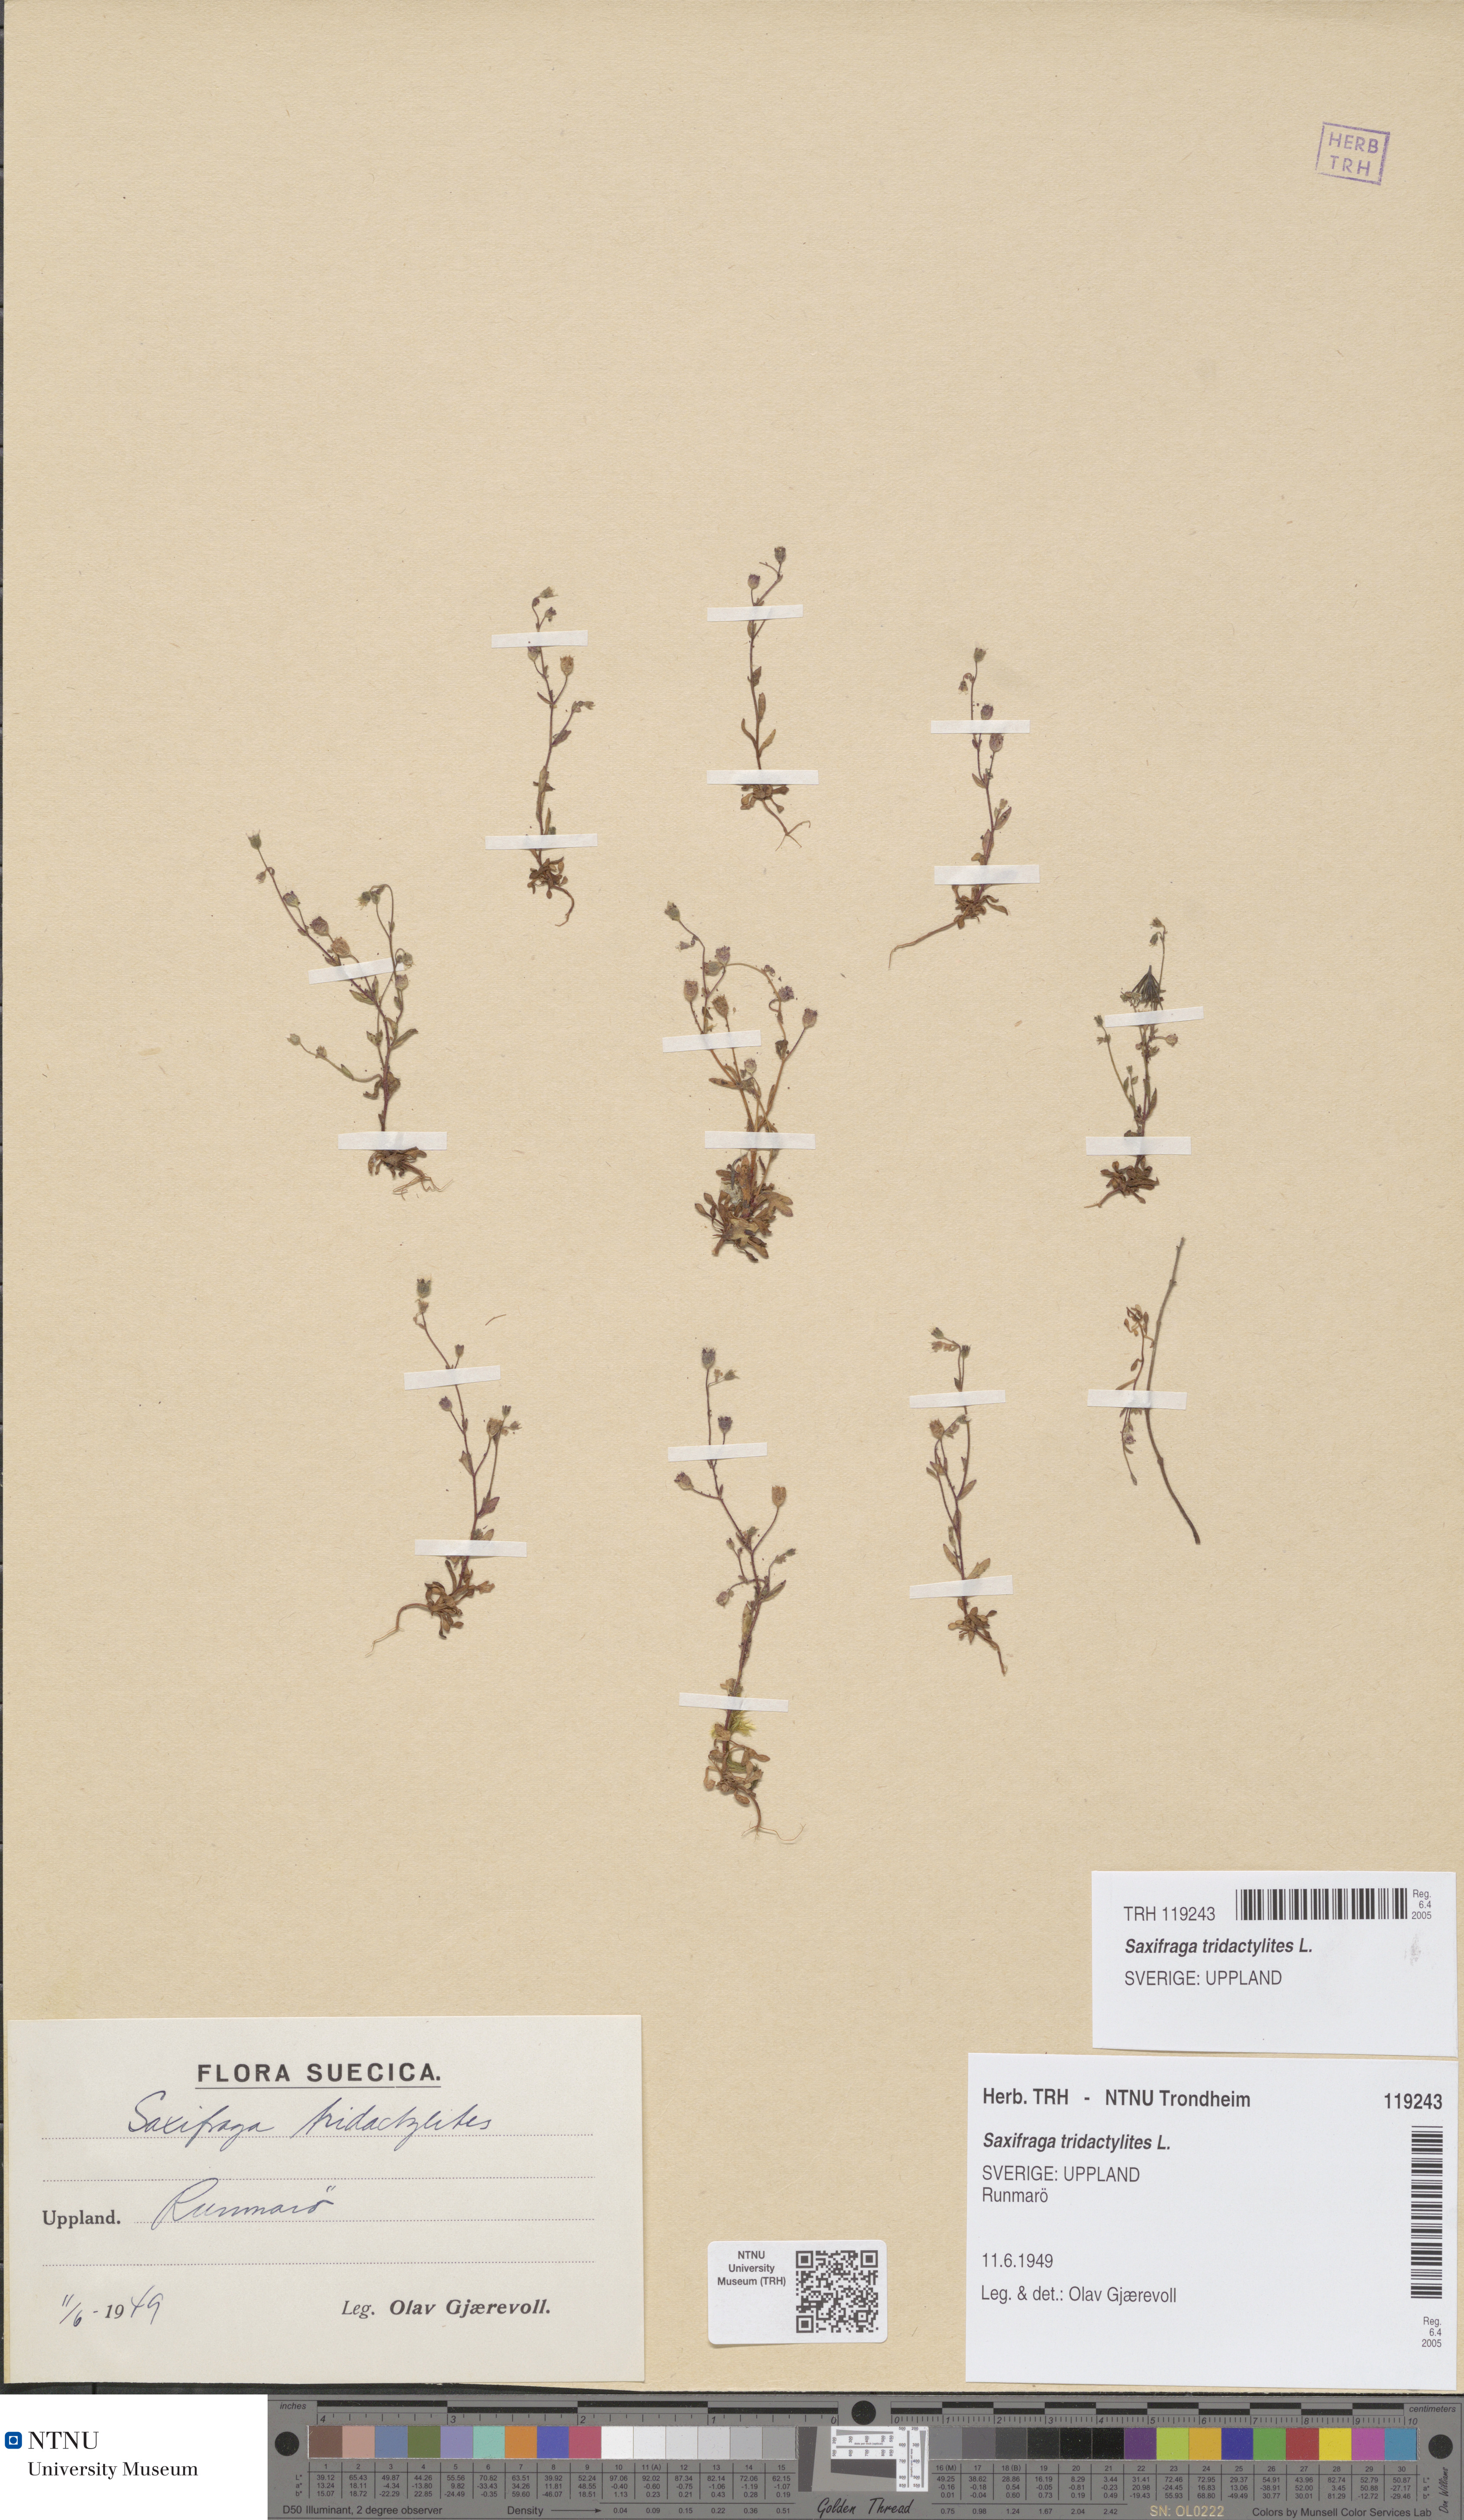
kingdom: Plantae
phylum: Tracheophyta
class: Magnoliopsida
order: Saxifragales
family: Saxifragaceae
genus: Saxifraga
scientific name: Saxifraga tridactylites
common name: Rue-leaved saxifrage
